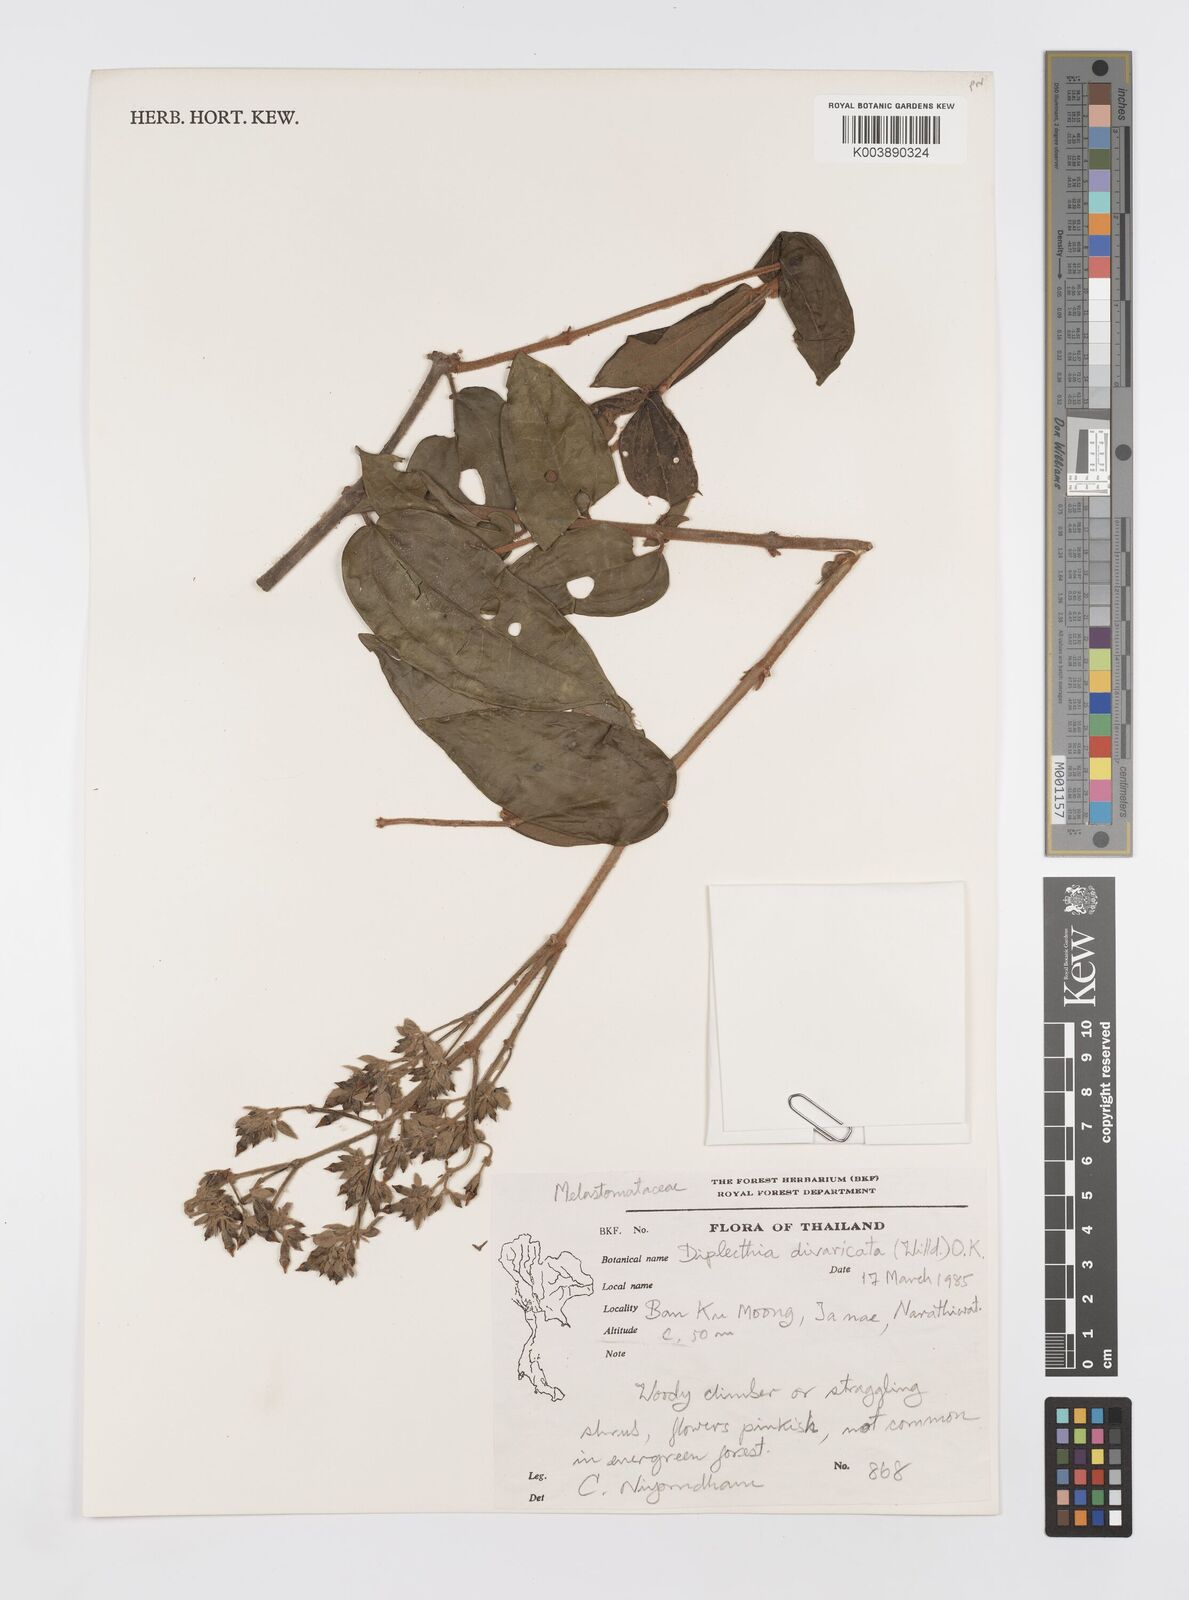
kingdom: Plantae
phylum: Tracheophyta
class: Magnoliopsida
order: Myrtales
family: Melastomataceae
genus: Diplectria
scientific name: Diplectria divaricata
